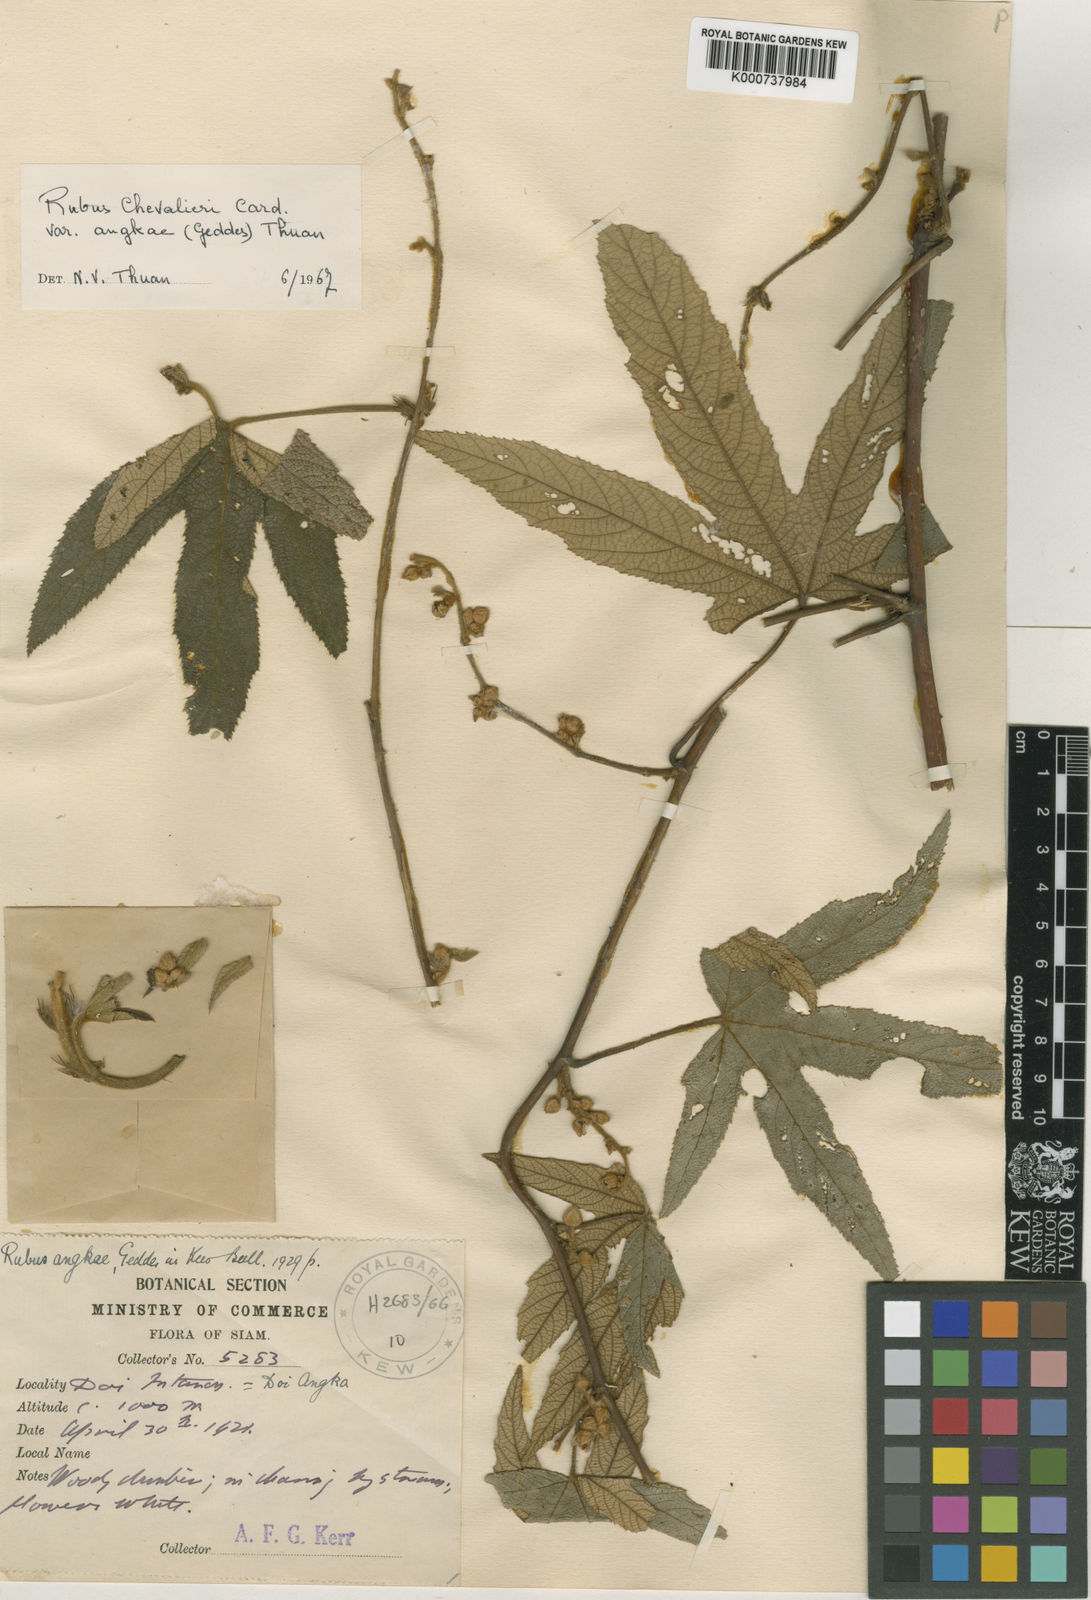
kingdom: Plantae
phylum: Tracheophyta
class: Magnoliopsida
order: Rosales
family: Rosaceae
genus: Rubus
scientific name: Rubus
